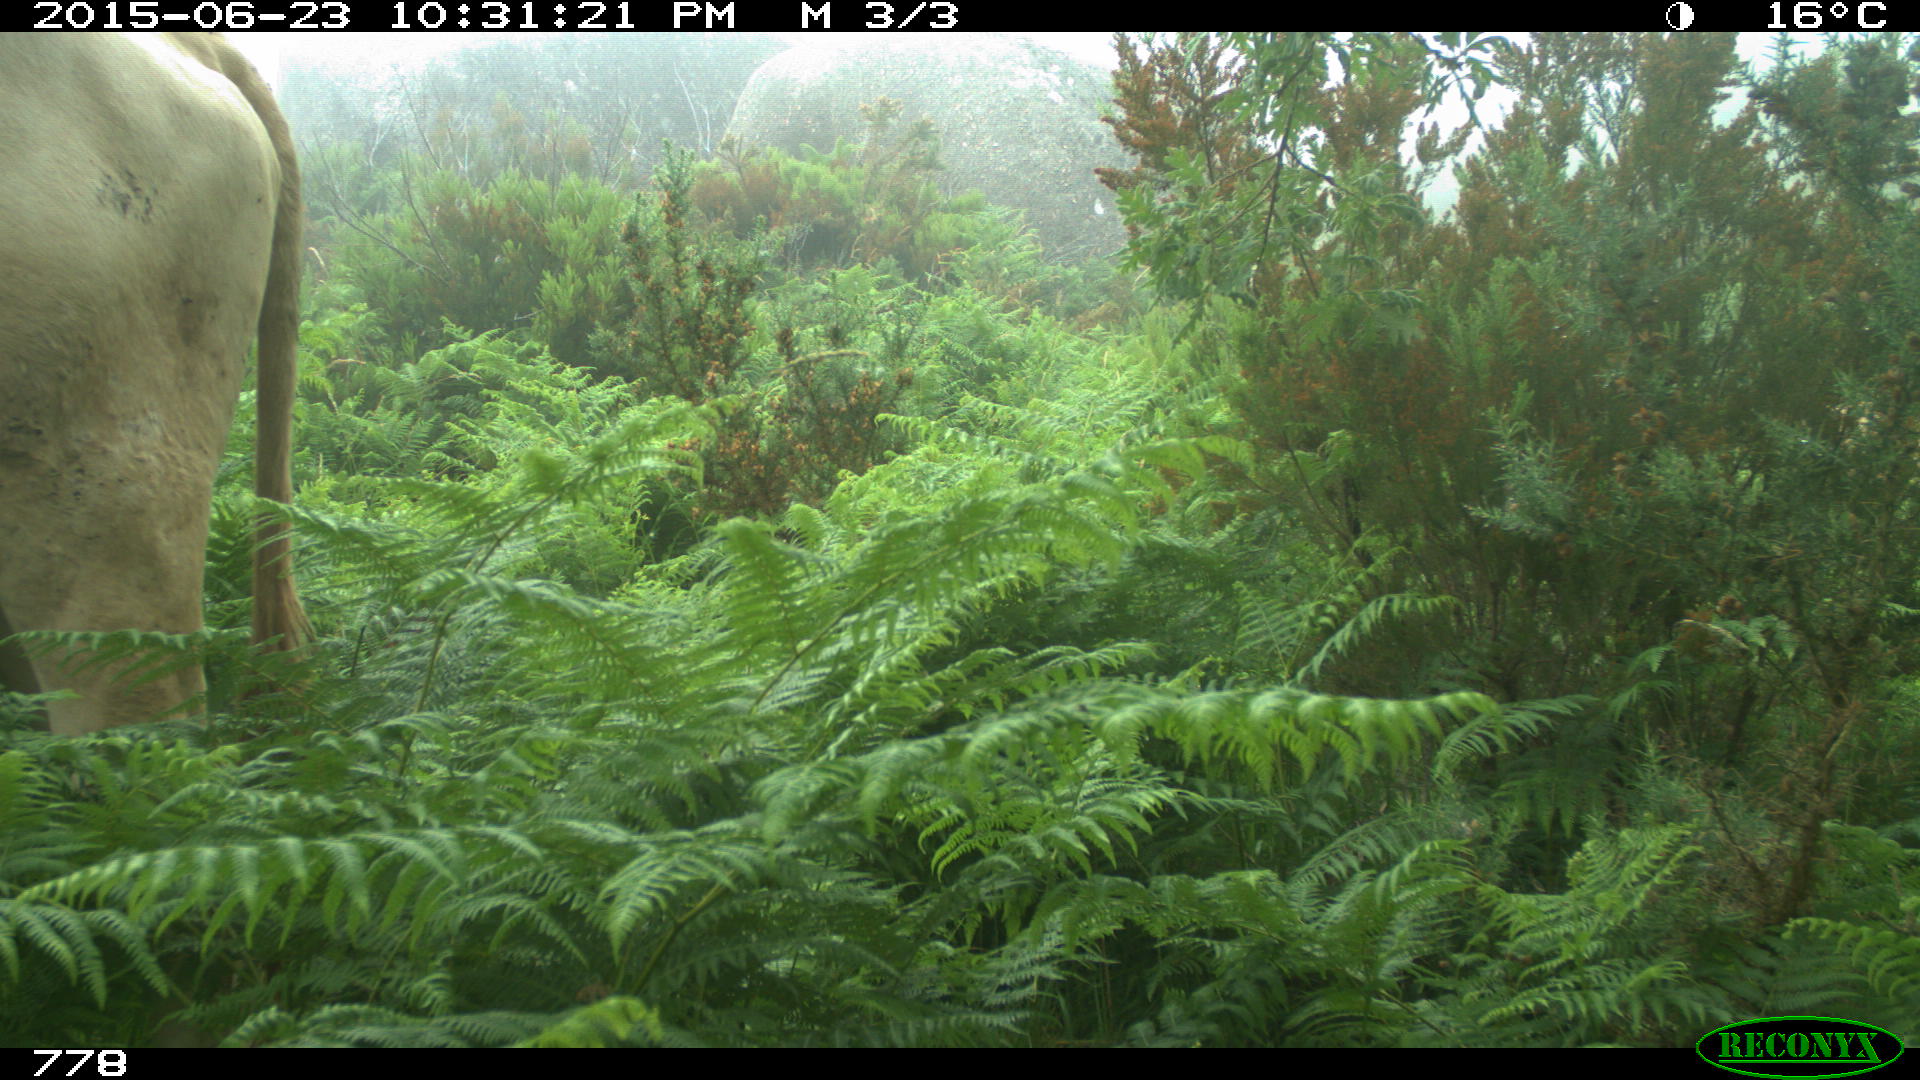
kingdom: Animalia
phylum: Chordata
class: Mammalia
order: Artiodactyla
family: Bovidae
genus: Bos
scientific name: Bos taurus
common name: Domesticated cattle
